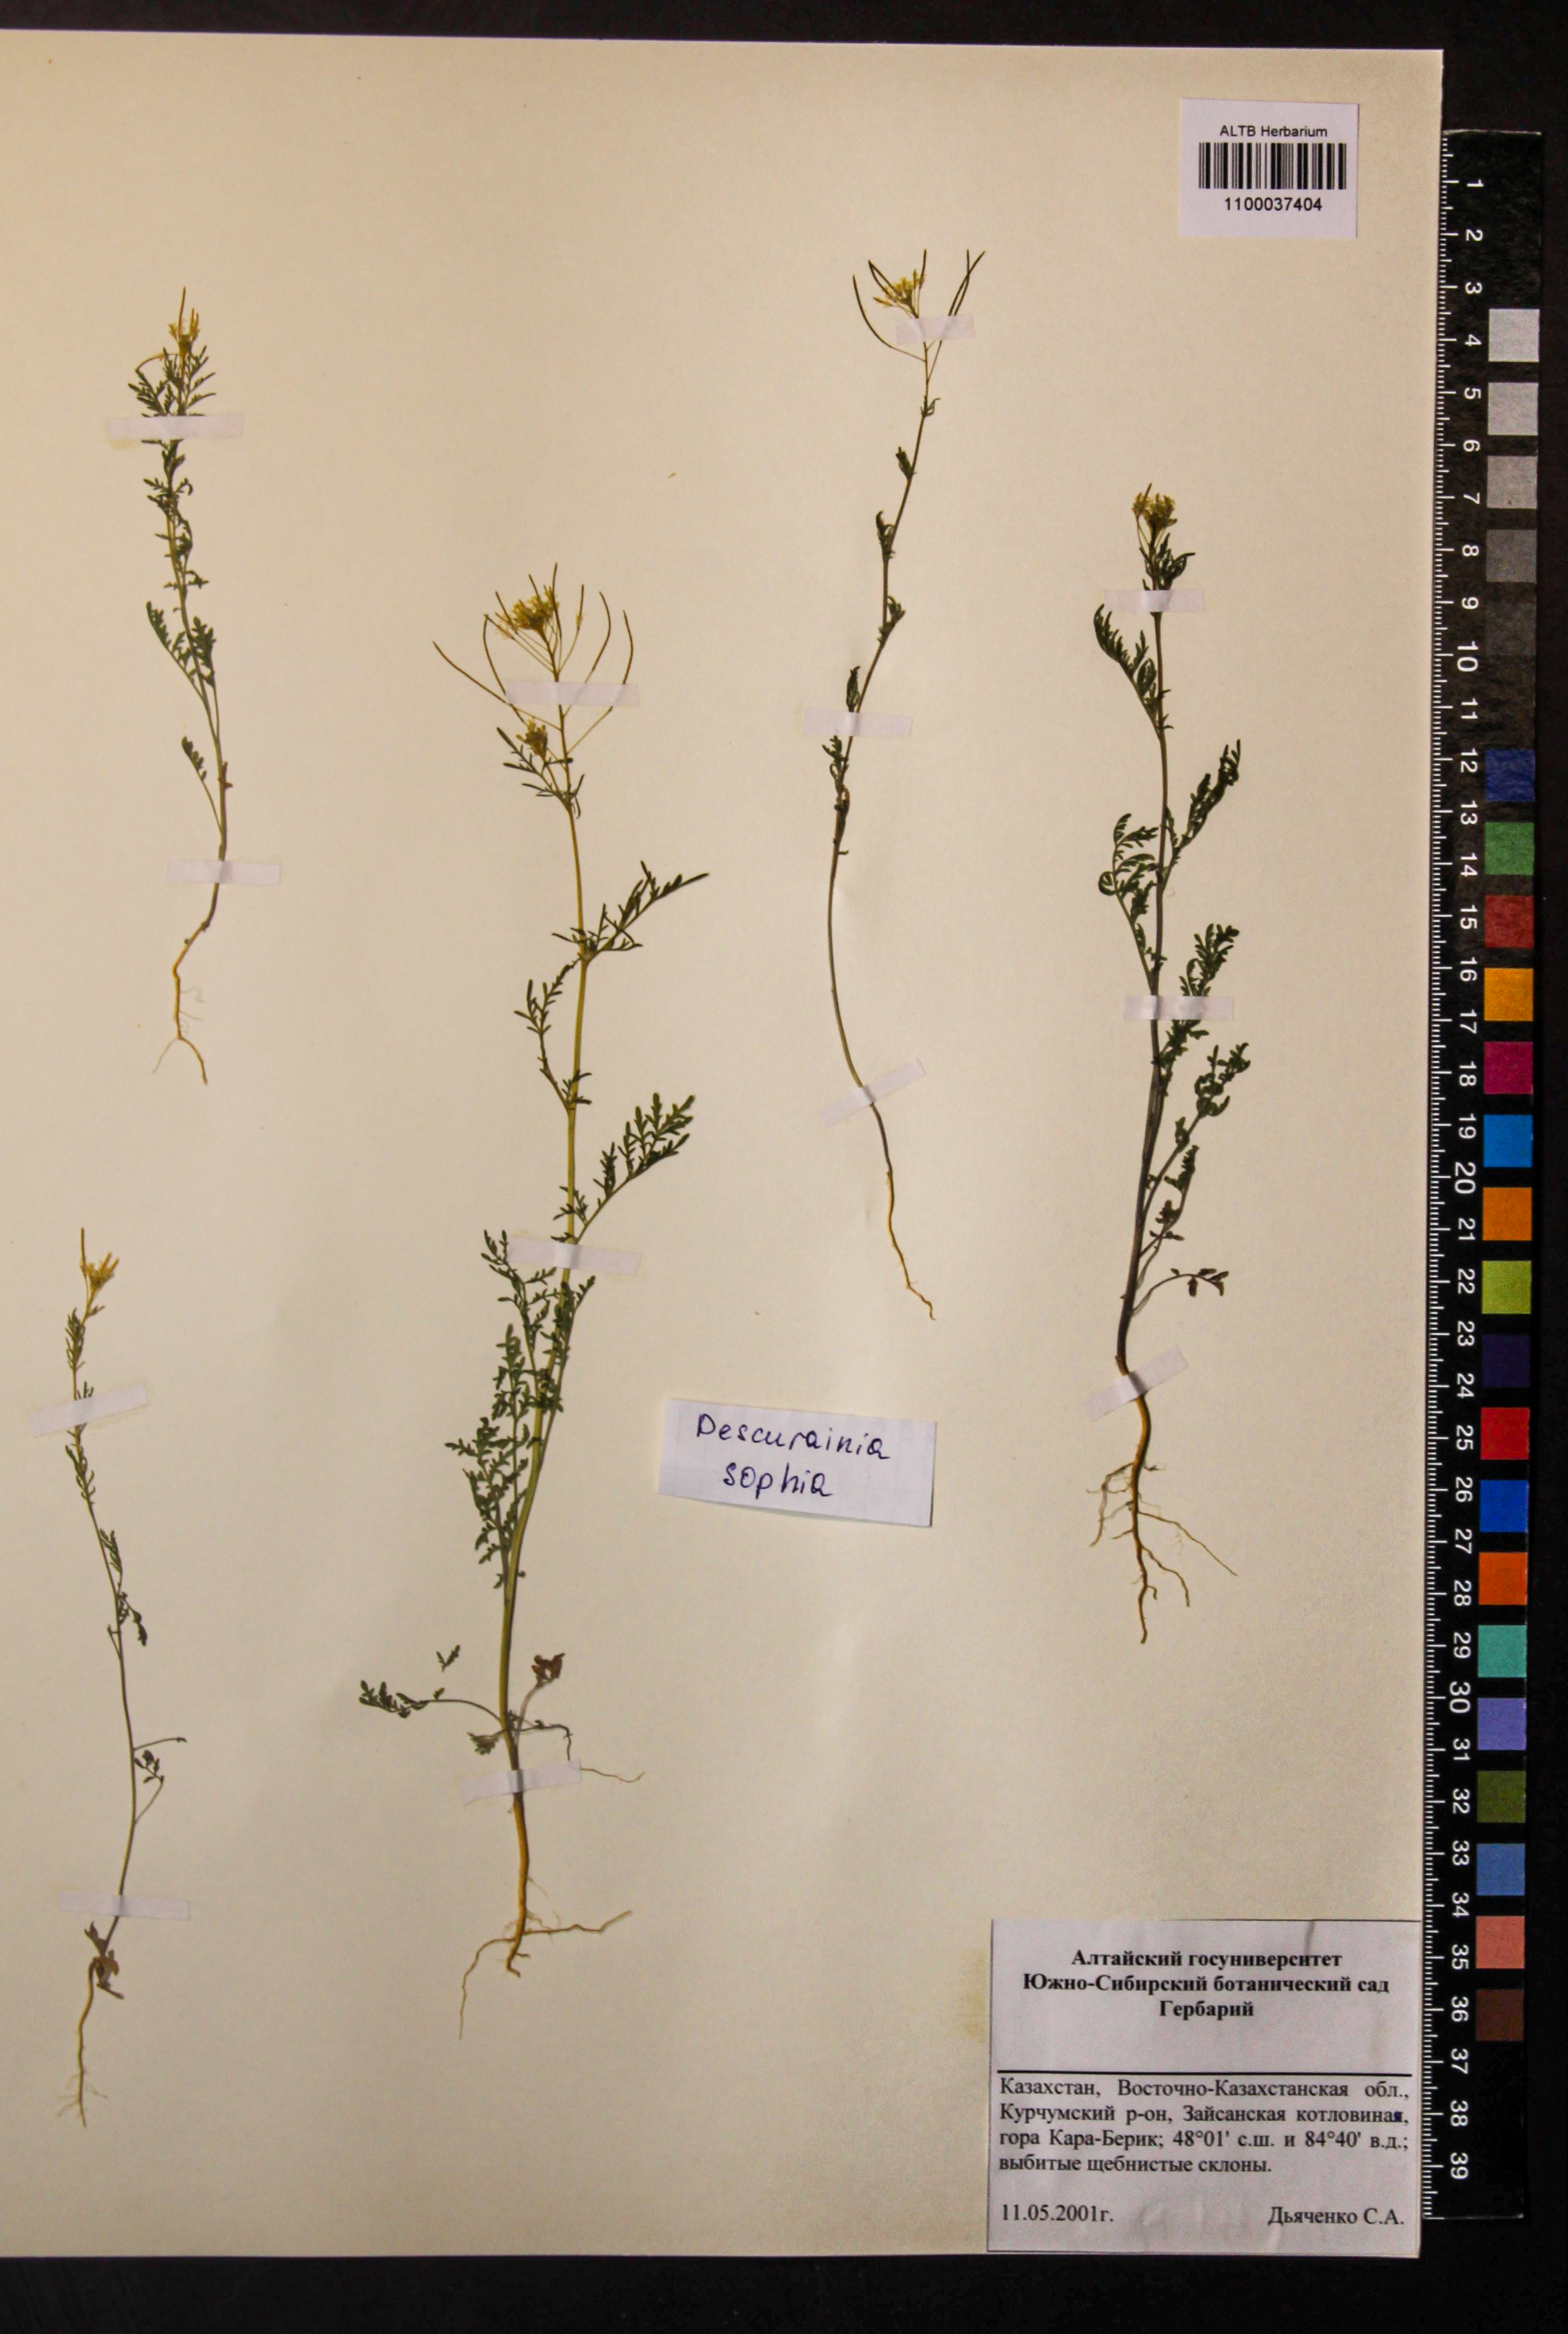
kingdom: Plantae
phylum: Tracheophyta
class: Magnoliopsida
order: Brassicales
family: Brassicaceae
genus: Descurainia
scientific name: Descurainia sophia
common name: Flixweed
